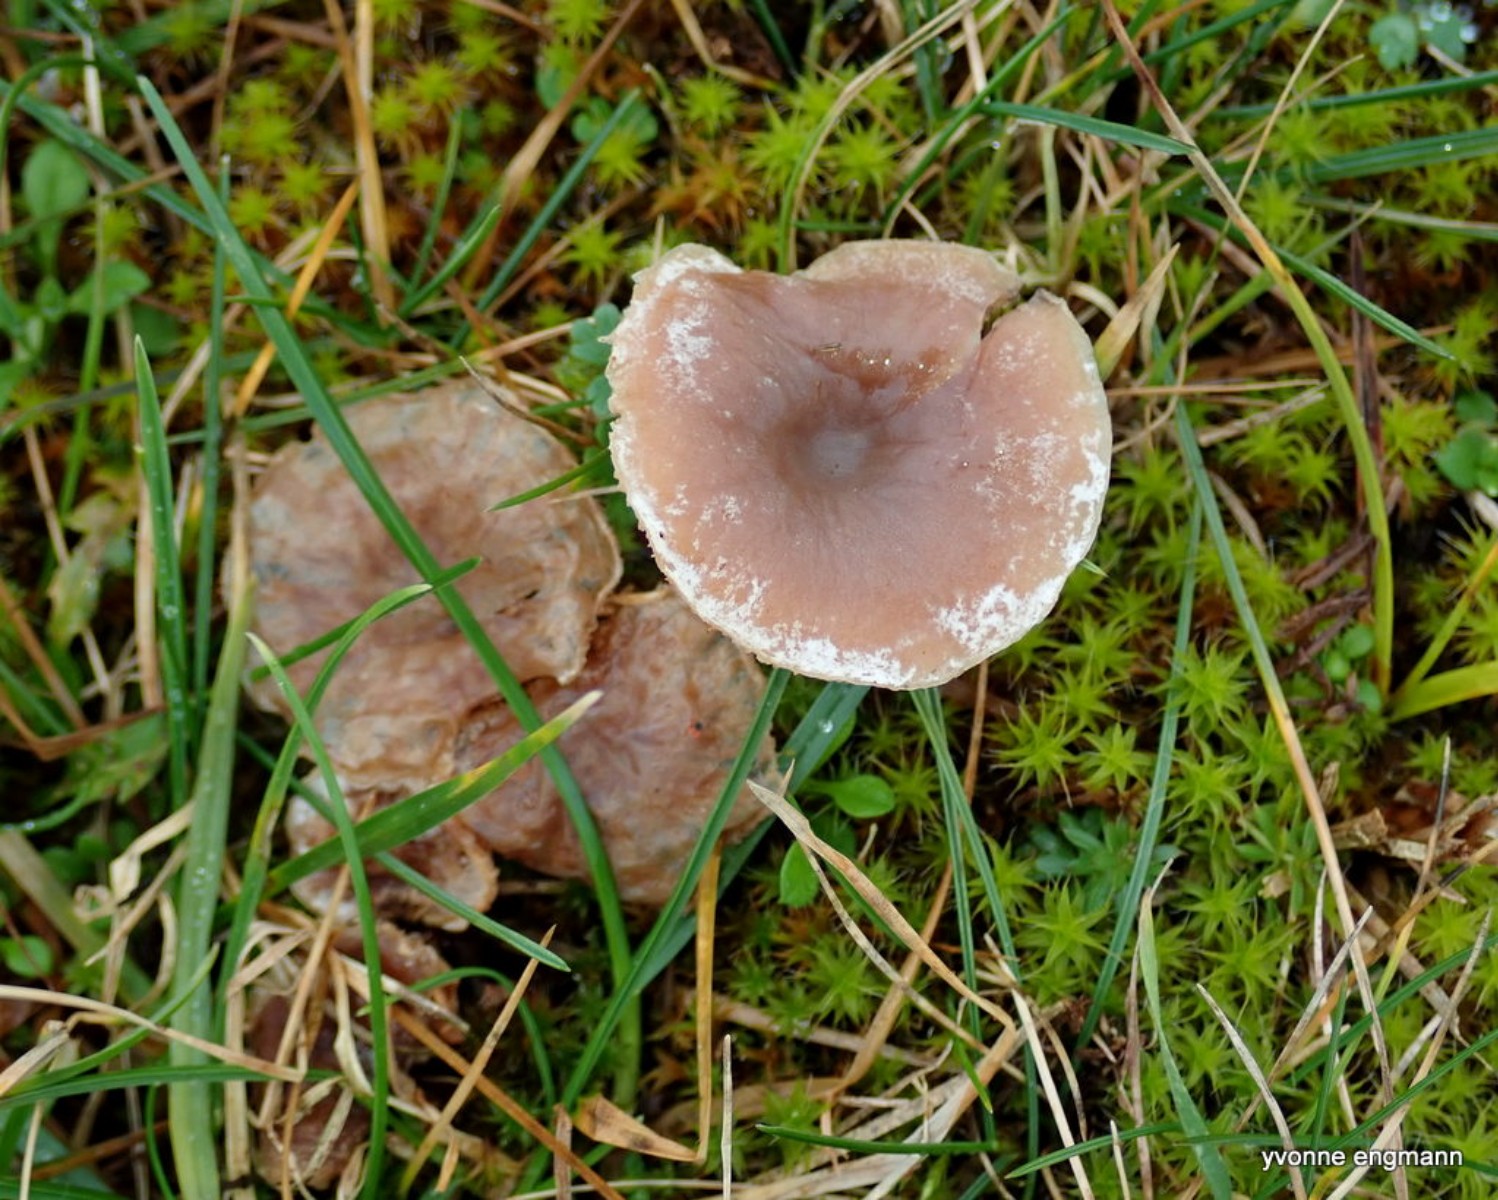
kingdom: Fungi
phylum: Basidiomycota
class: Agaricomycetes
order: Agaricales
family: Tricholomataceae
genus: Clitocybe
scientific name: Clitocybe rivulosa
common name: eng-tragthat
